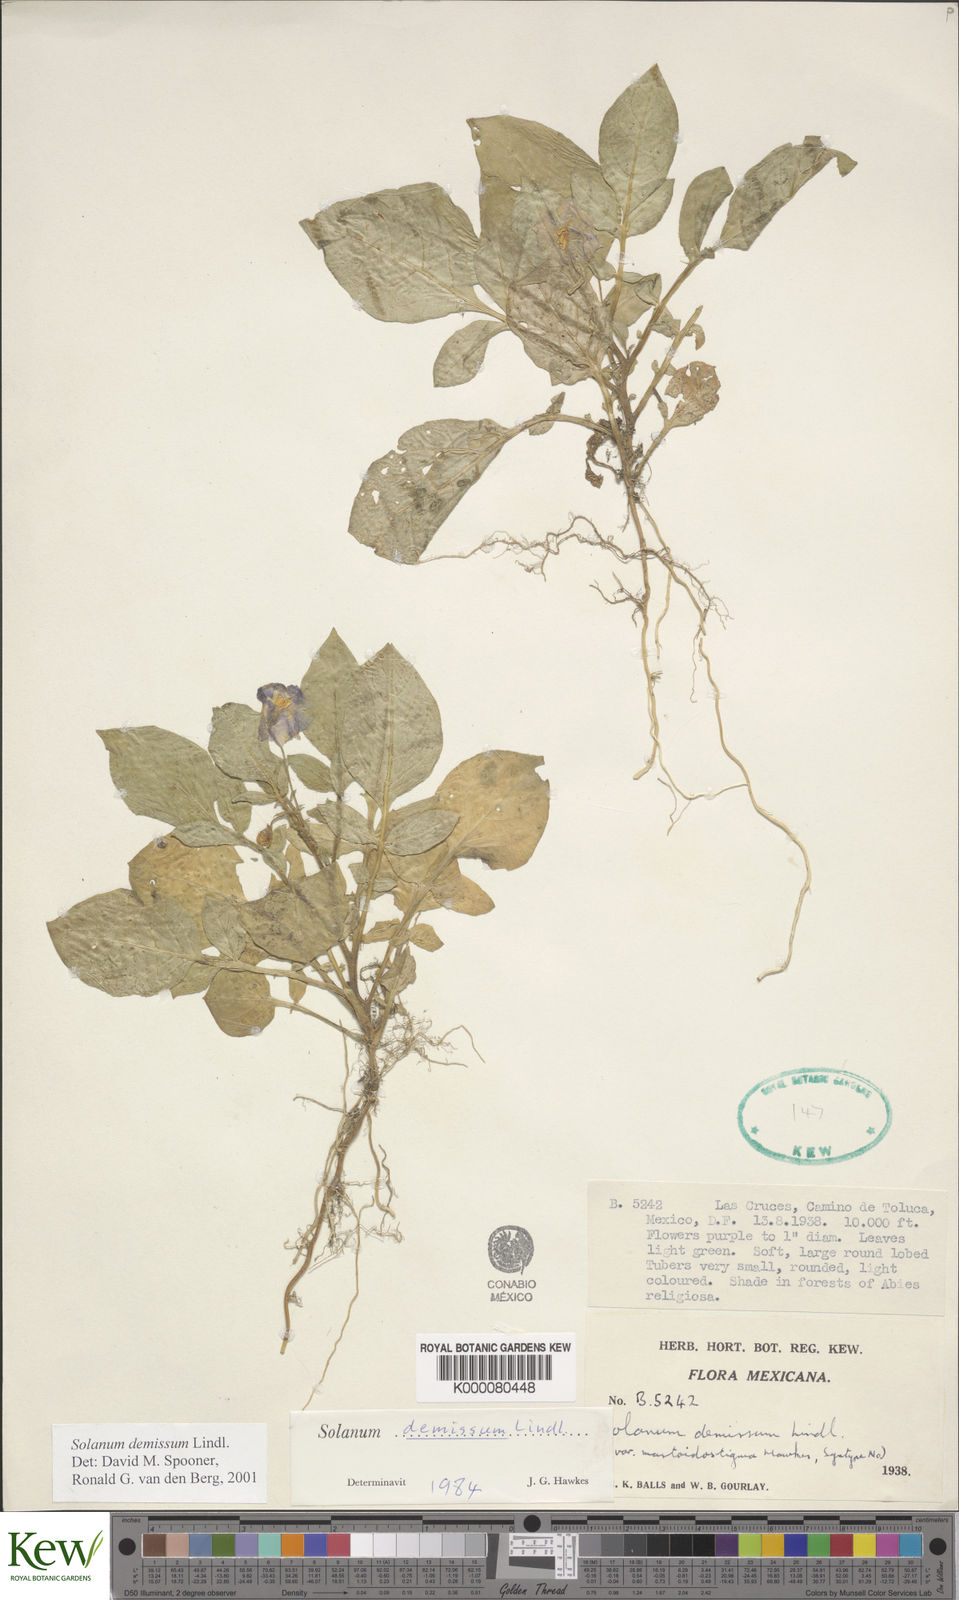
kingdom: Plantae
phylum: Tracheophyta
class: Magnoliopsida
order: Solanales
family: Solanaceae
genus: Solanum
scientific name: Solanum demissum
